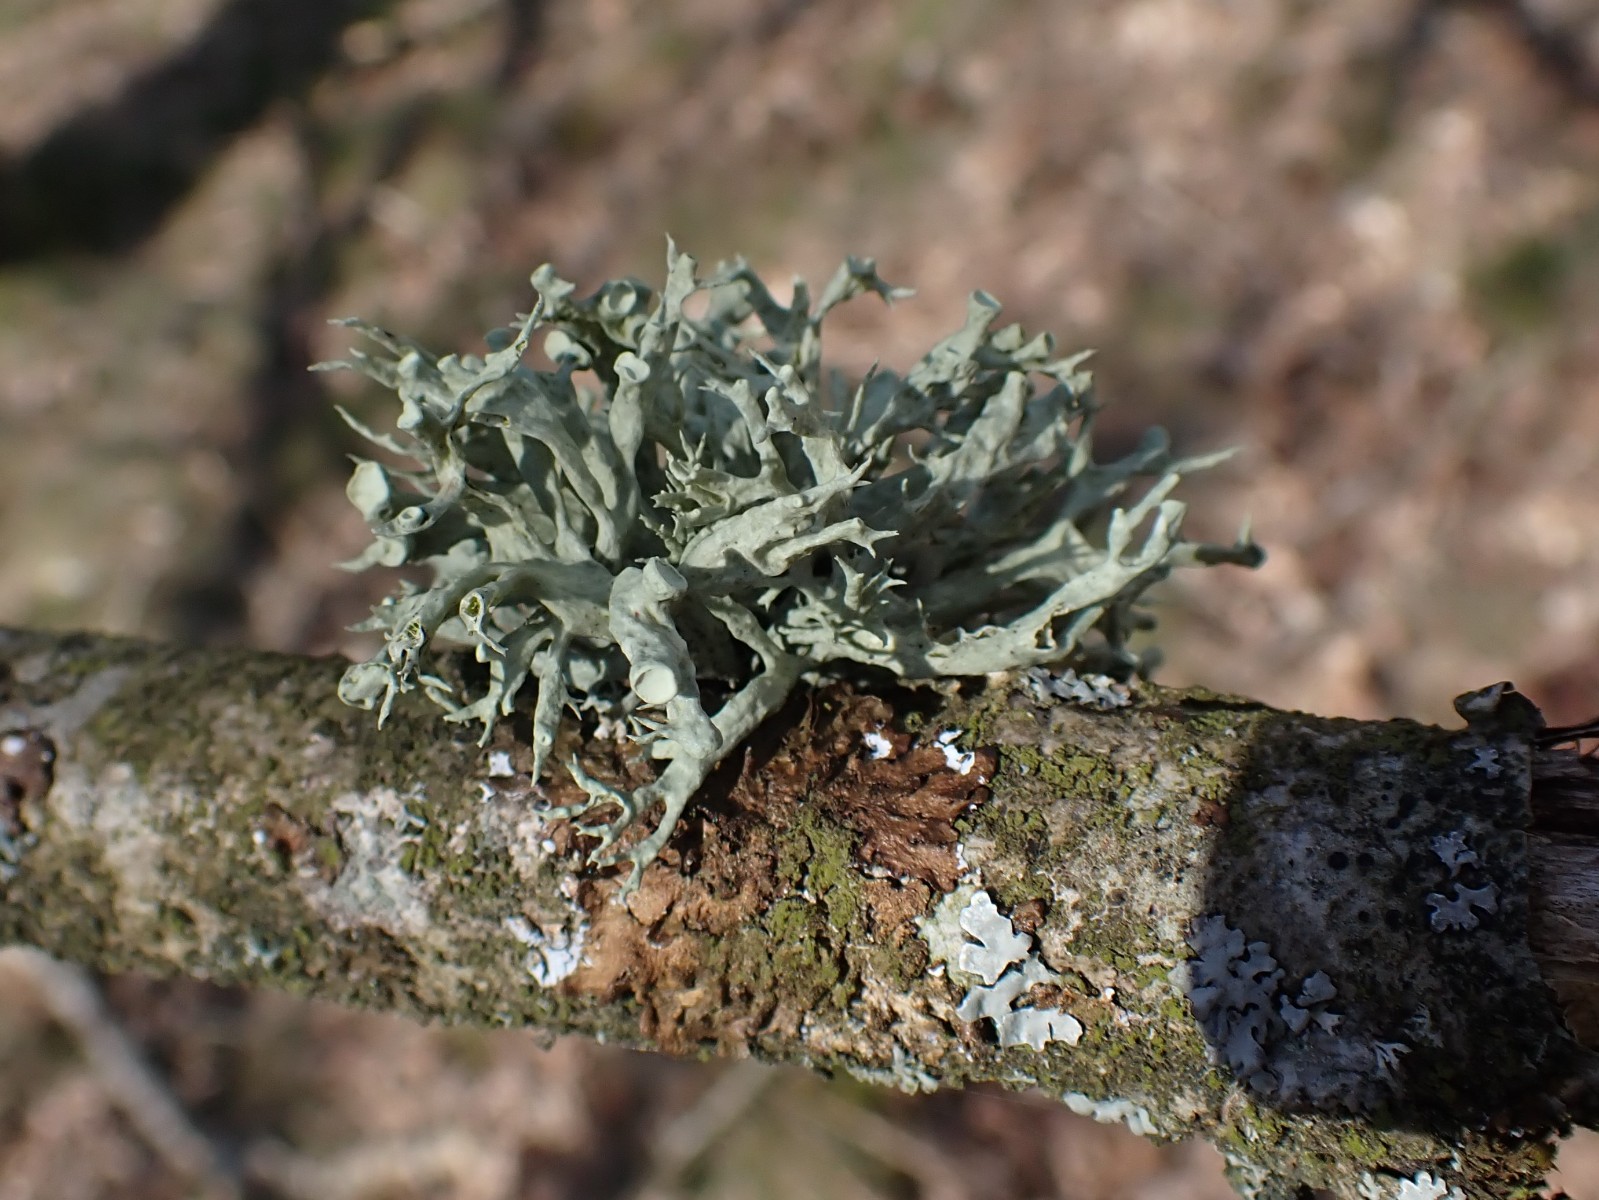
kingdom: Fungi
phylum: Ascomycota
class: Lecanoromycetes
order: Lecanorales
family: Ramalinaceae
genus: Ramalina
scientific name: Ramalina fastigiata
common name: tue-grenlav
